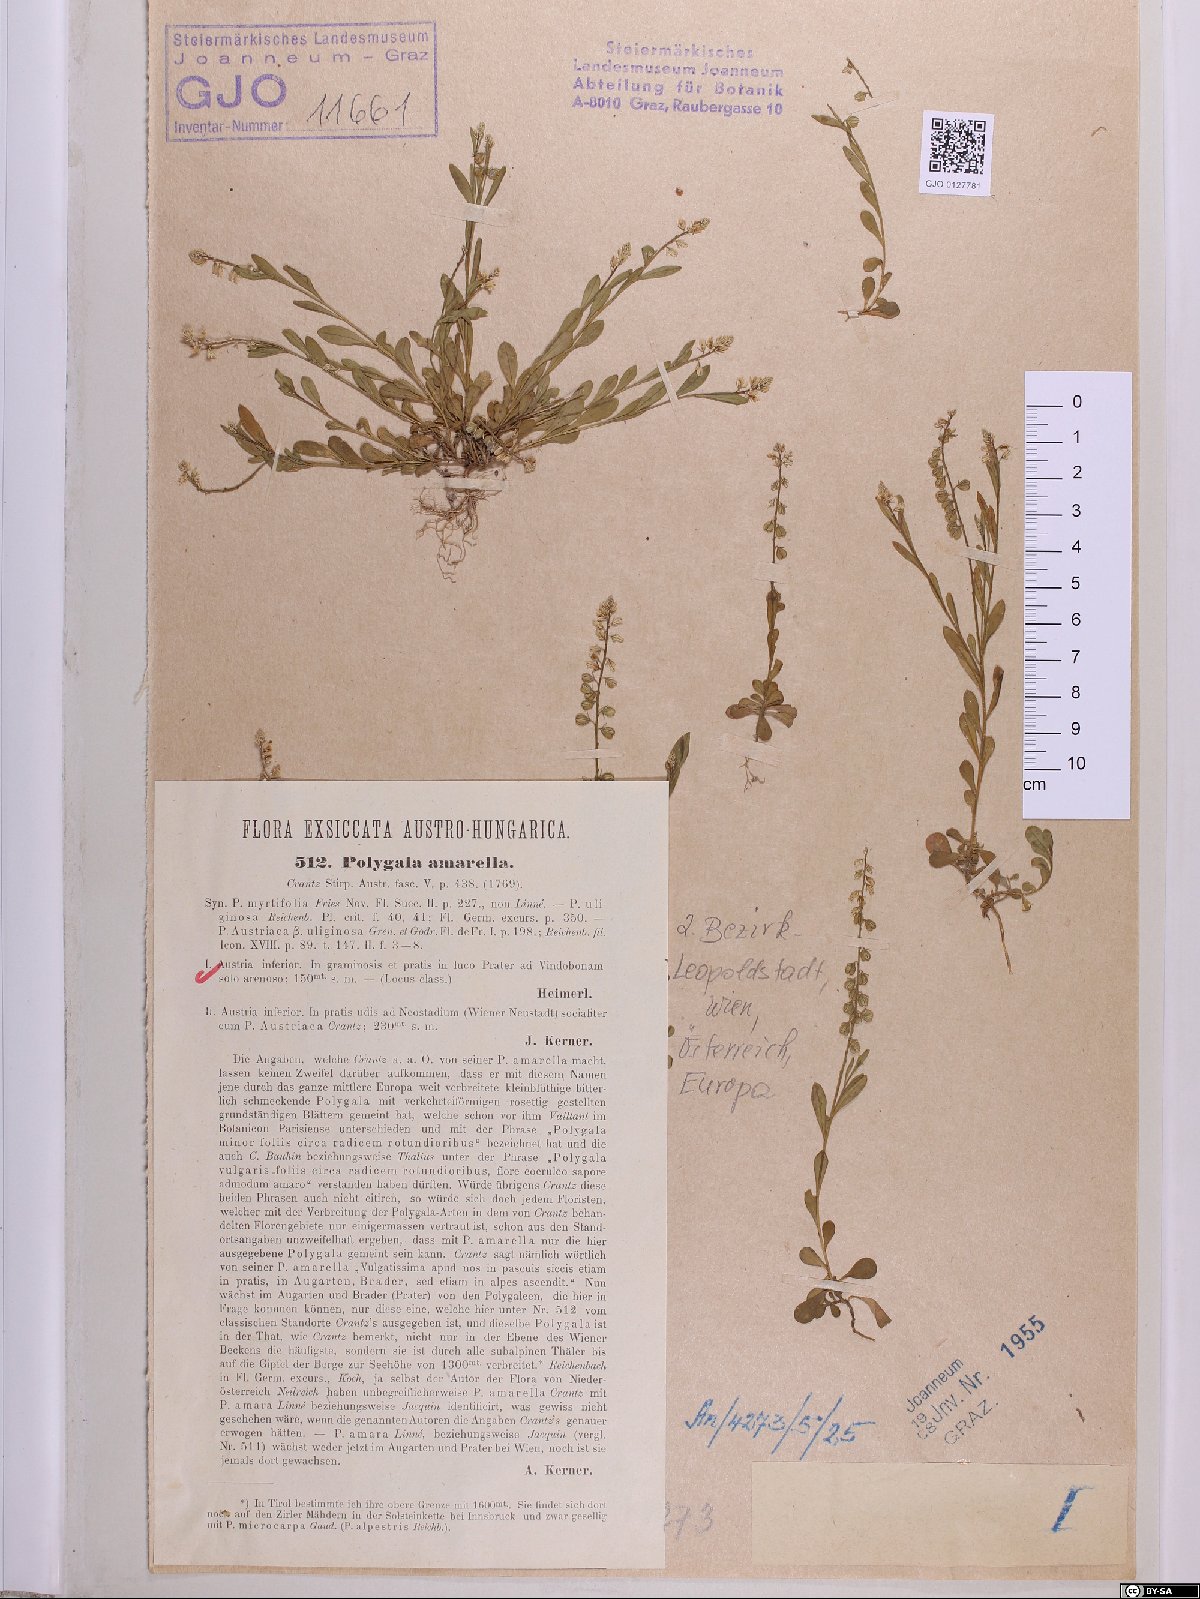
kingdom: Plantae
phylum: Tracheophyta
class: Magnoliopsida
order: Fabales
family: Polygalaceae
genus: Polygala
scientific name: Polygala amarella
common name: Dwarf milkwort
